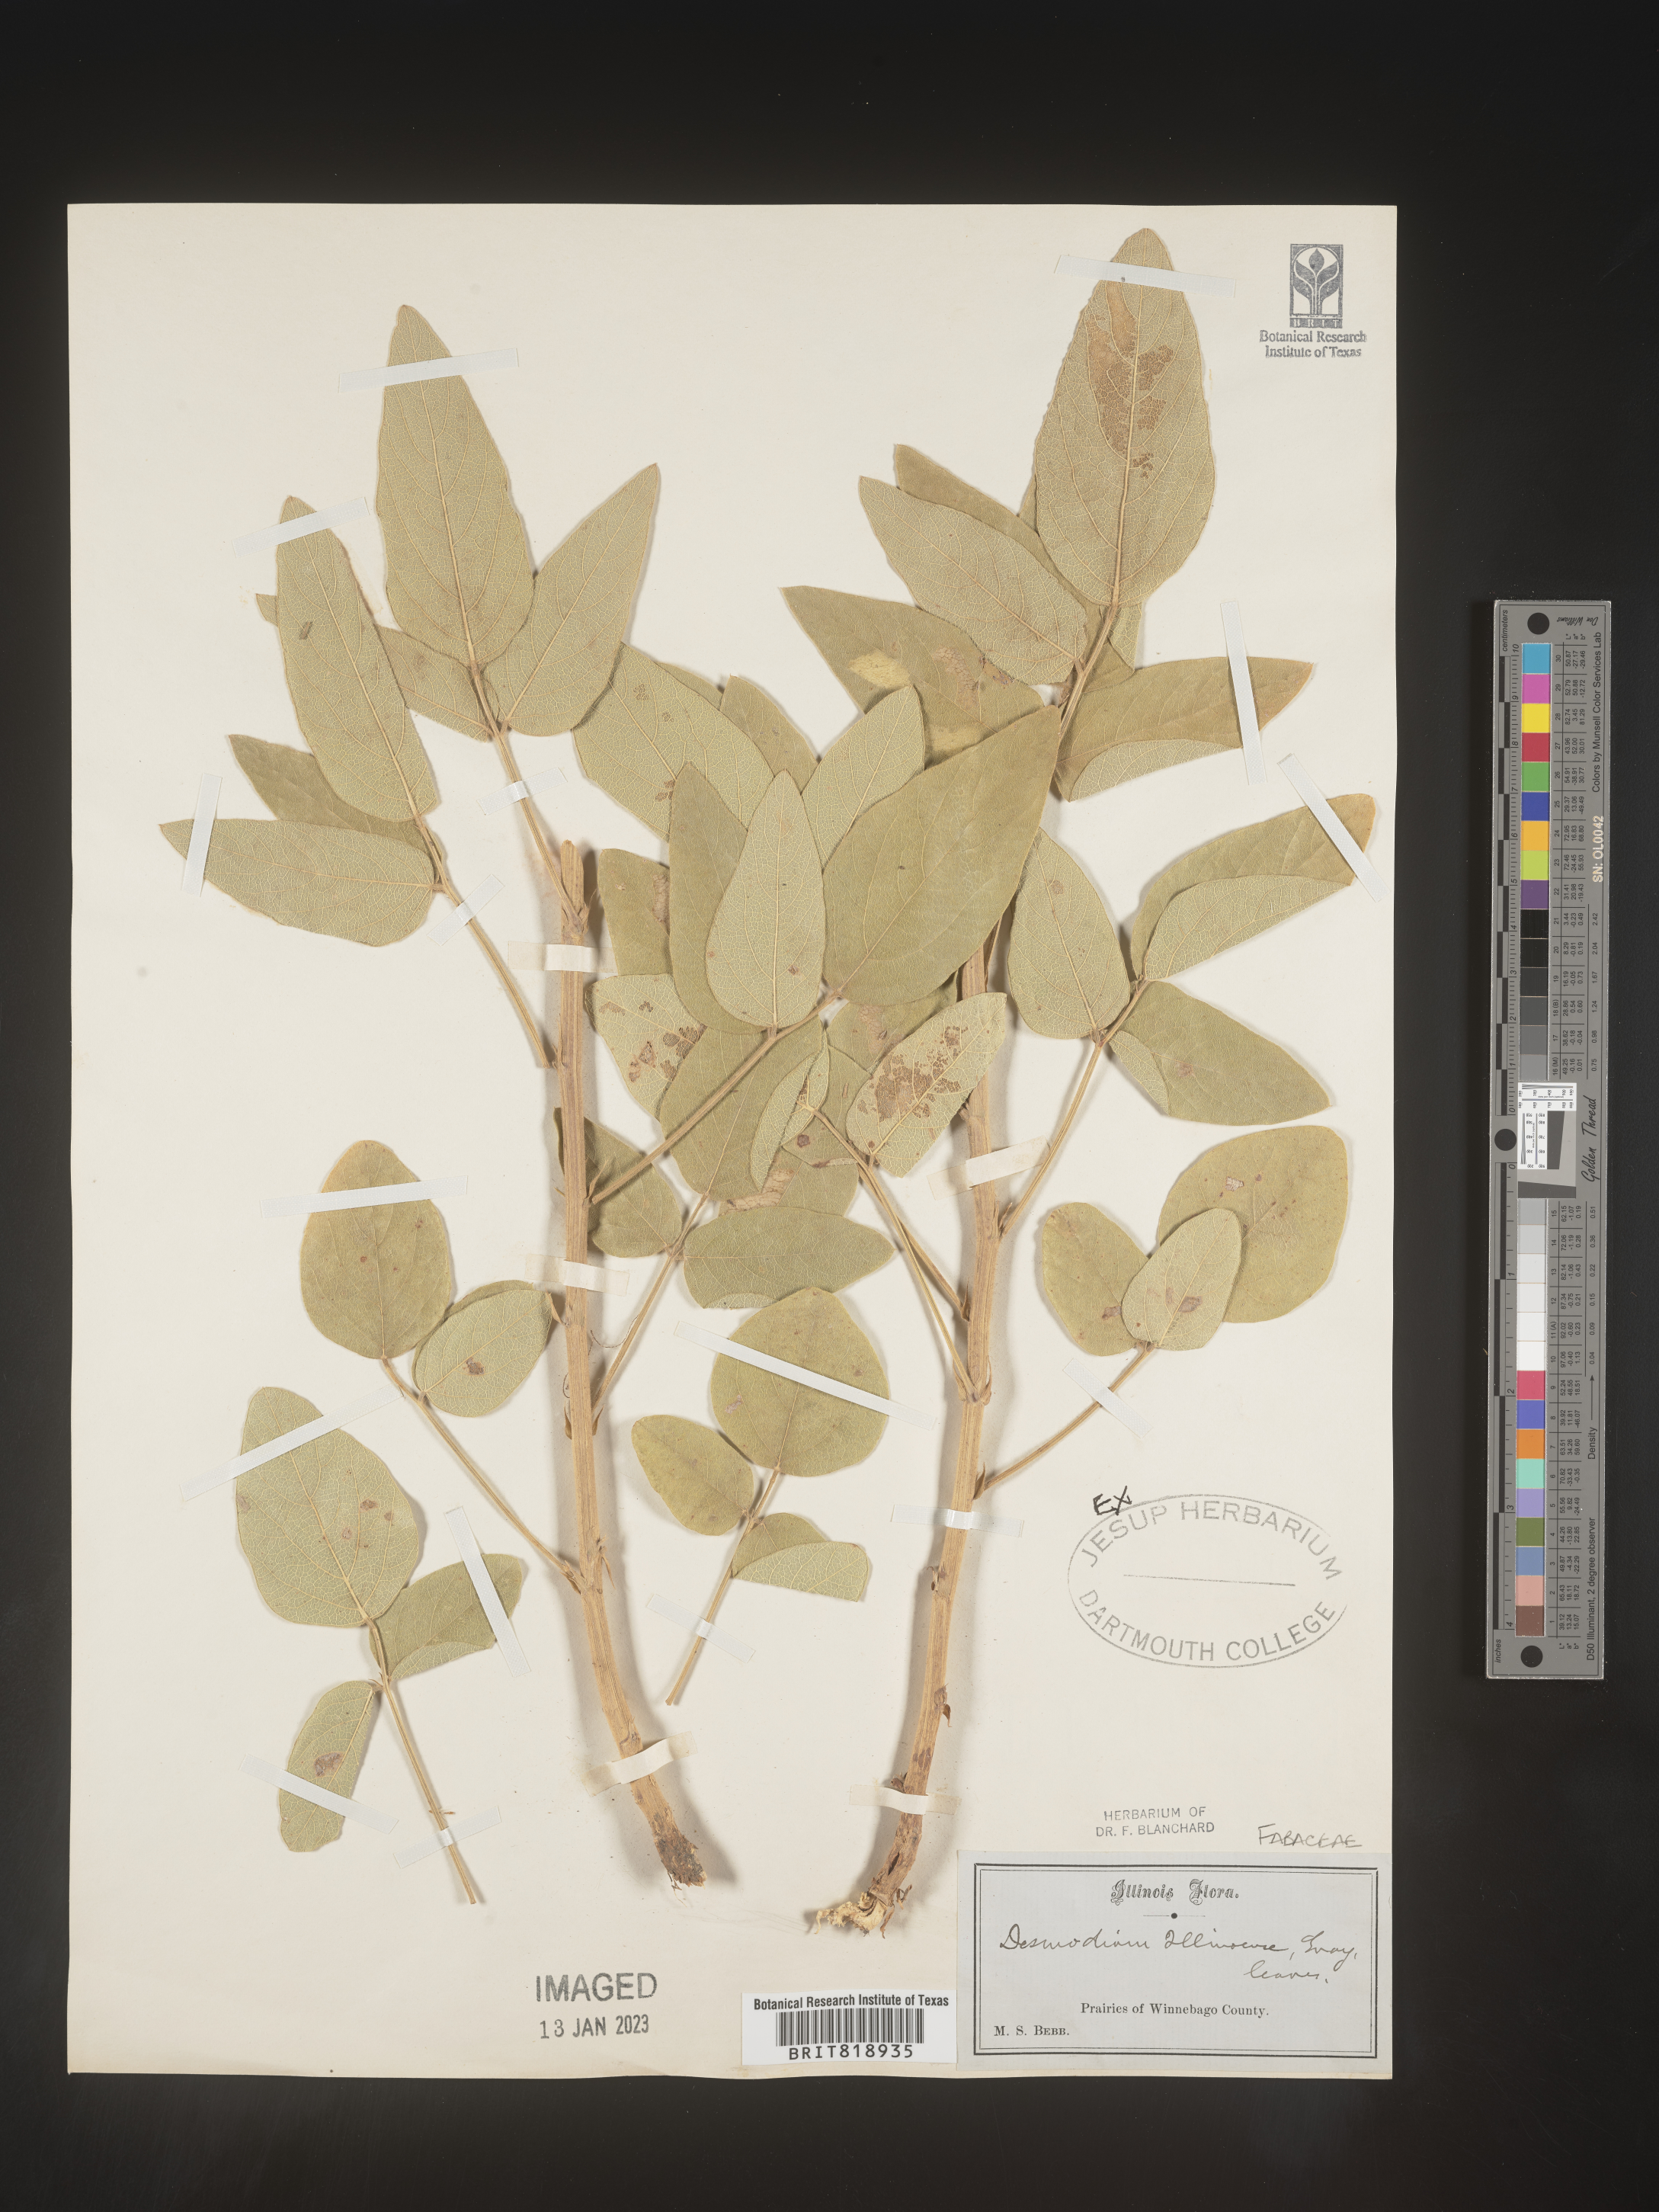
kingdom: Plantae
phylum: Tracheophyta
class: Magnoliopsida
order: Fabales
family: Fabaceae
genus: Desmodium
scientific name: Desmodium illinoense
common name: Illinois tick-clover
